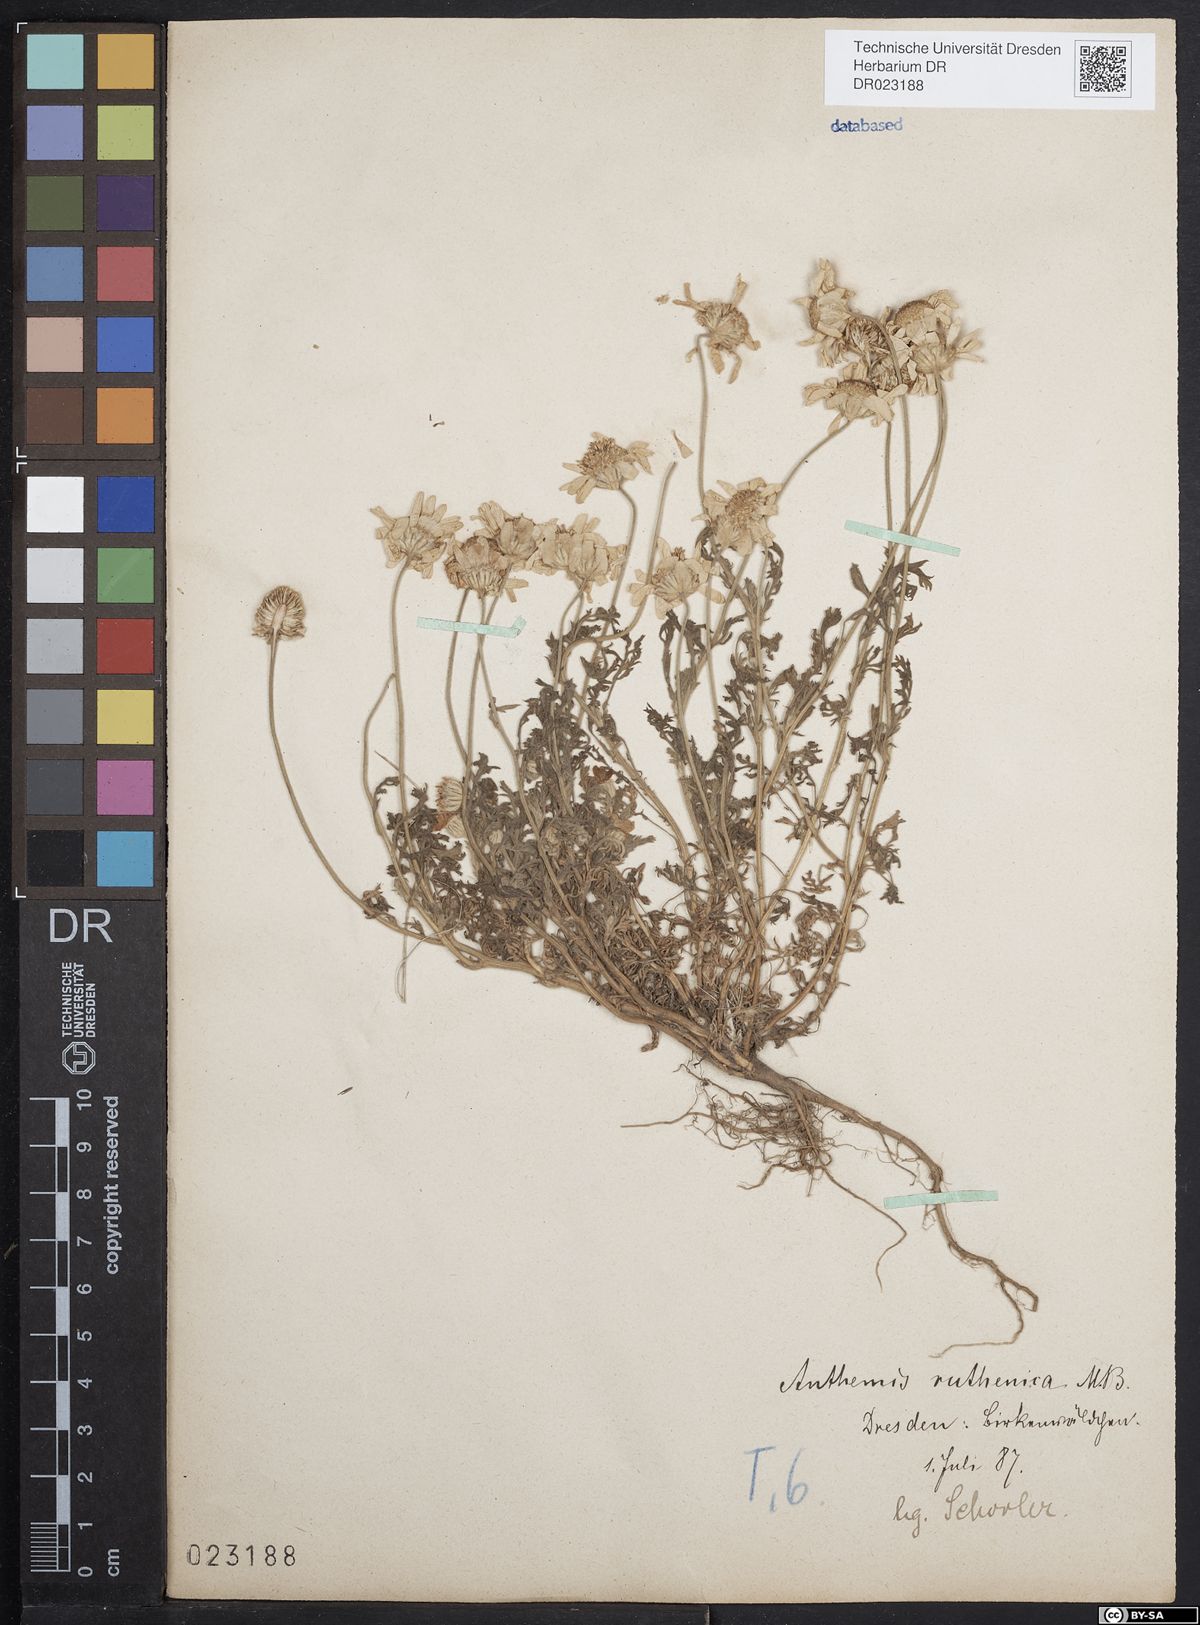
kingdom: Plantae
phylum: Tracheophyta
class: Magnoliopsida
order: Asterales
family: Asteraceae
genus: Anthemis
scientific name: Anthemis ruthenica
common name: Eastern chamomile
